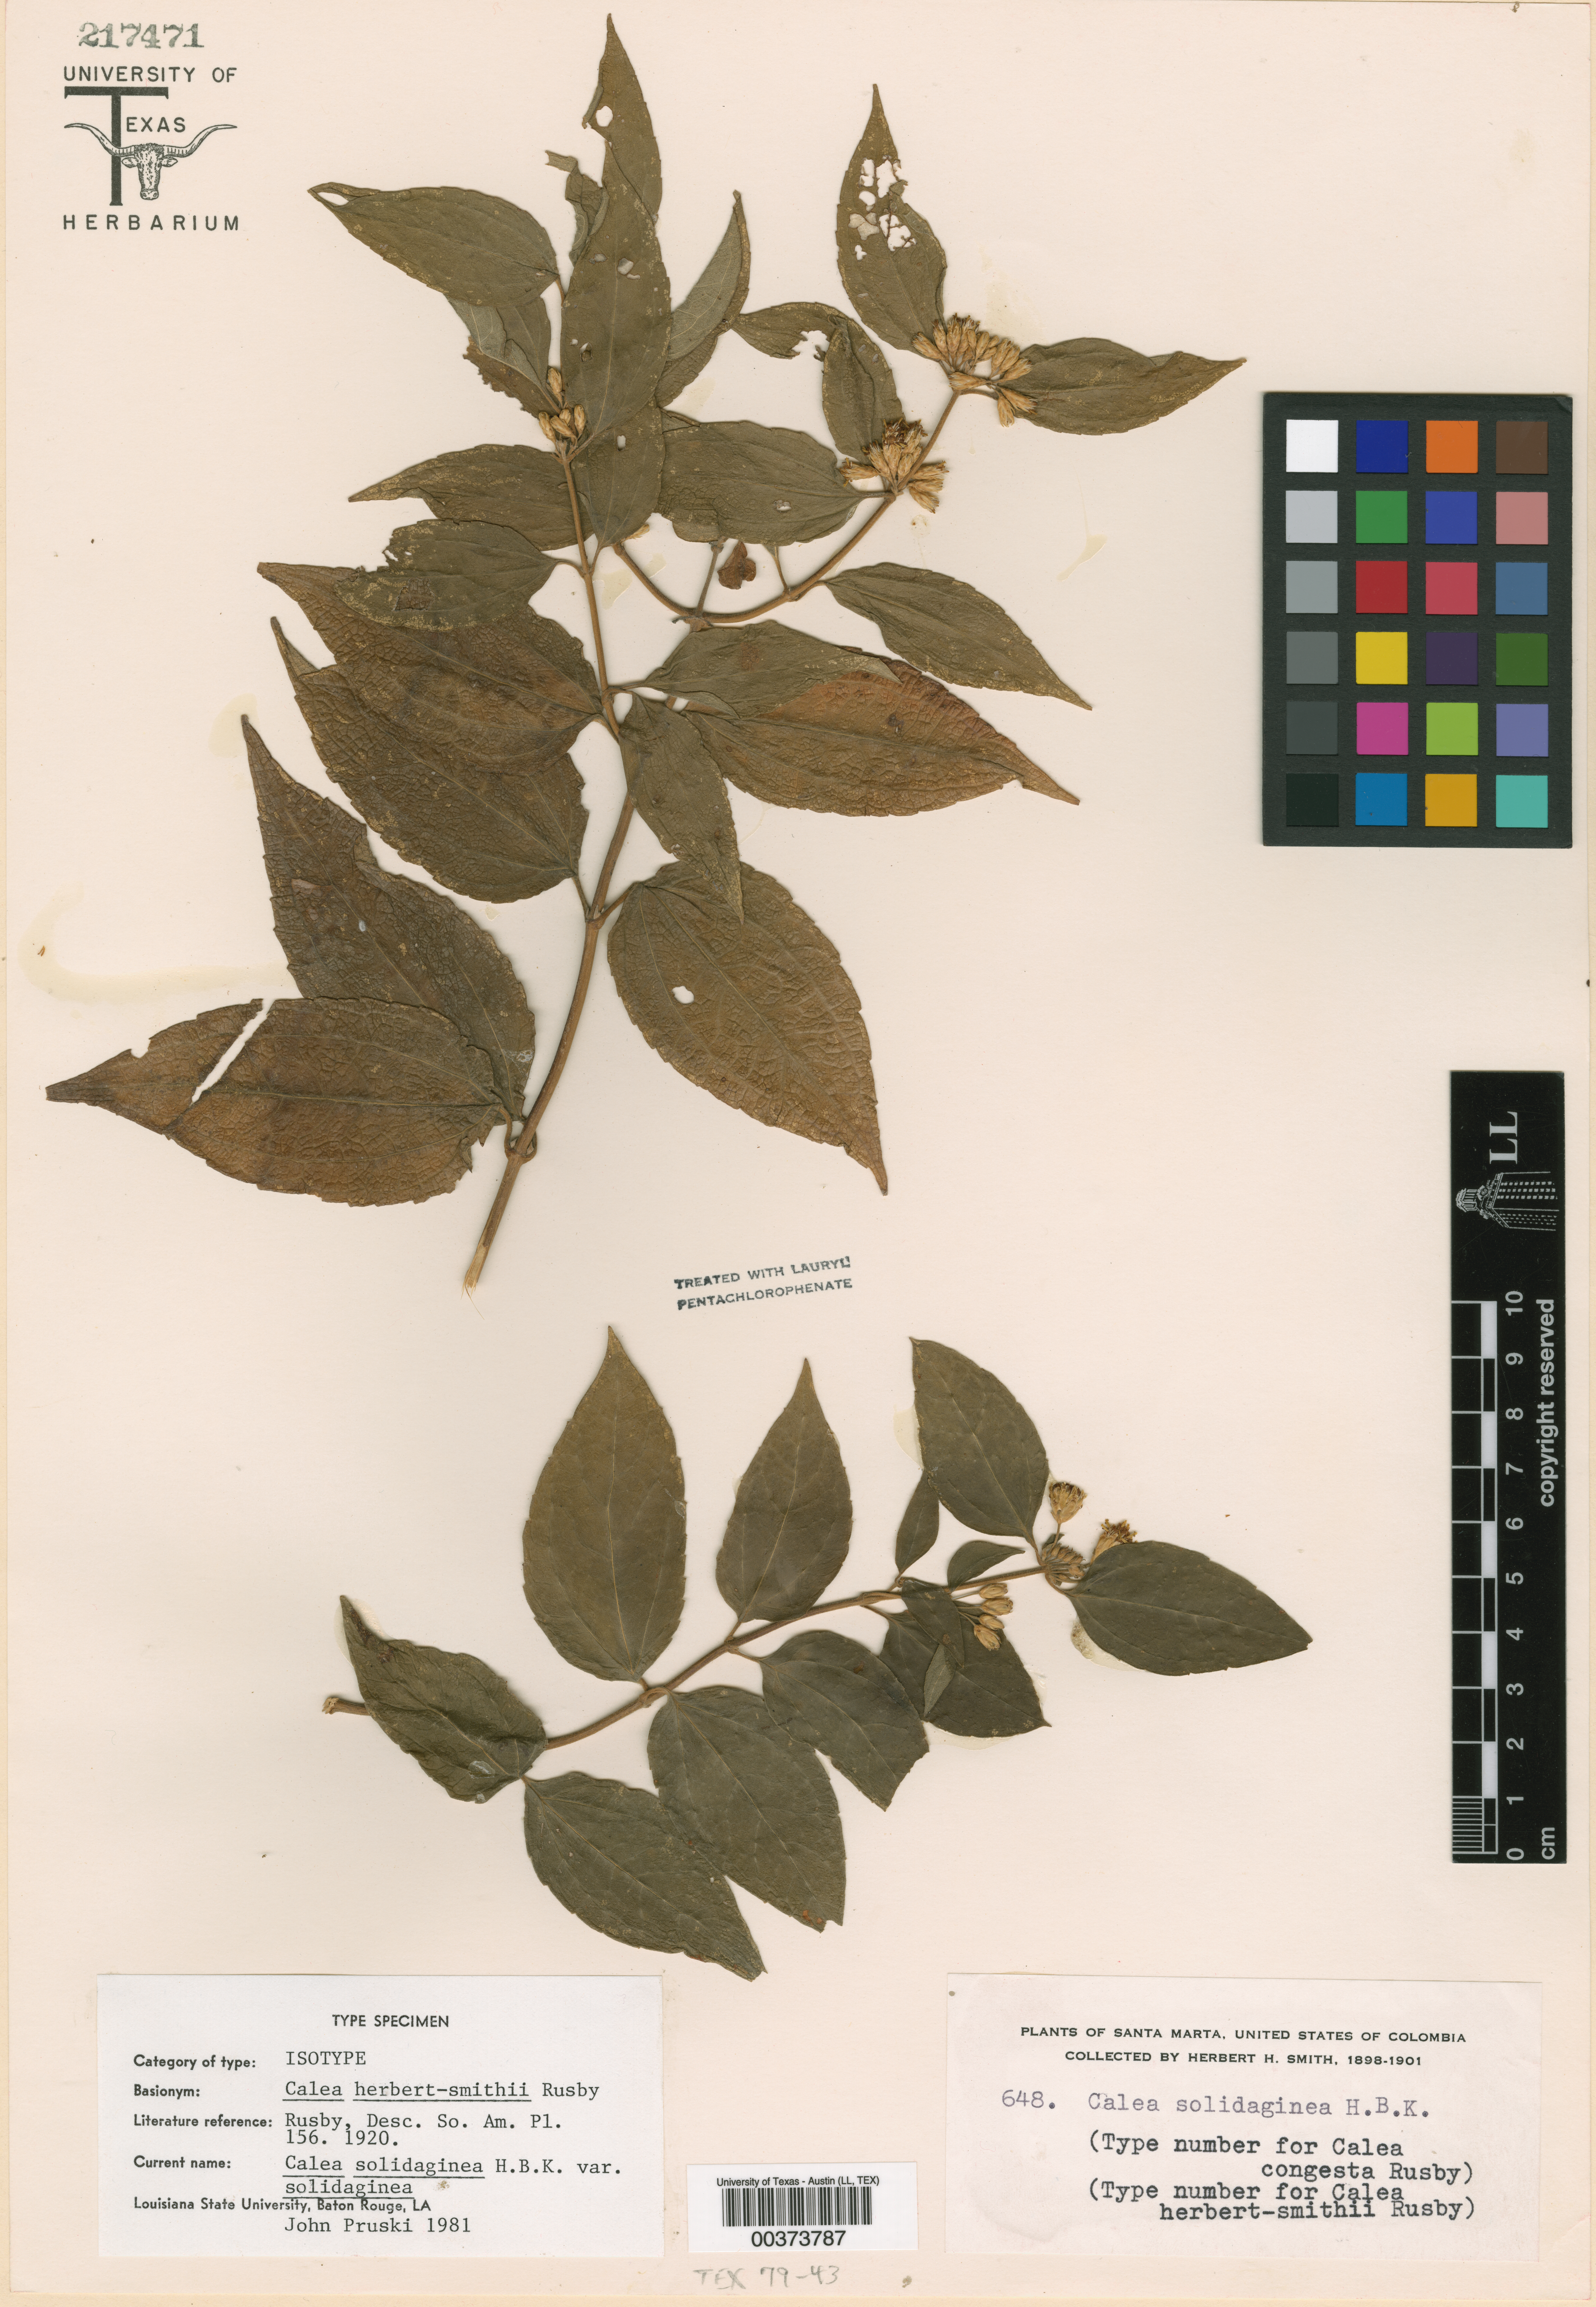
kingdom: Plantae
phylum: Tracheophyta
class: Magnoliopsida
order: Asterales
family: Asteraceae
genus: Calea
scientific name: Calea solidaginea
